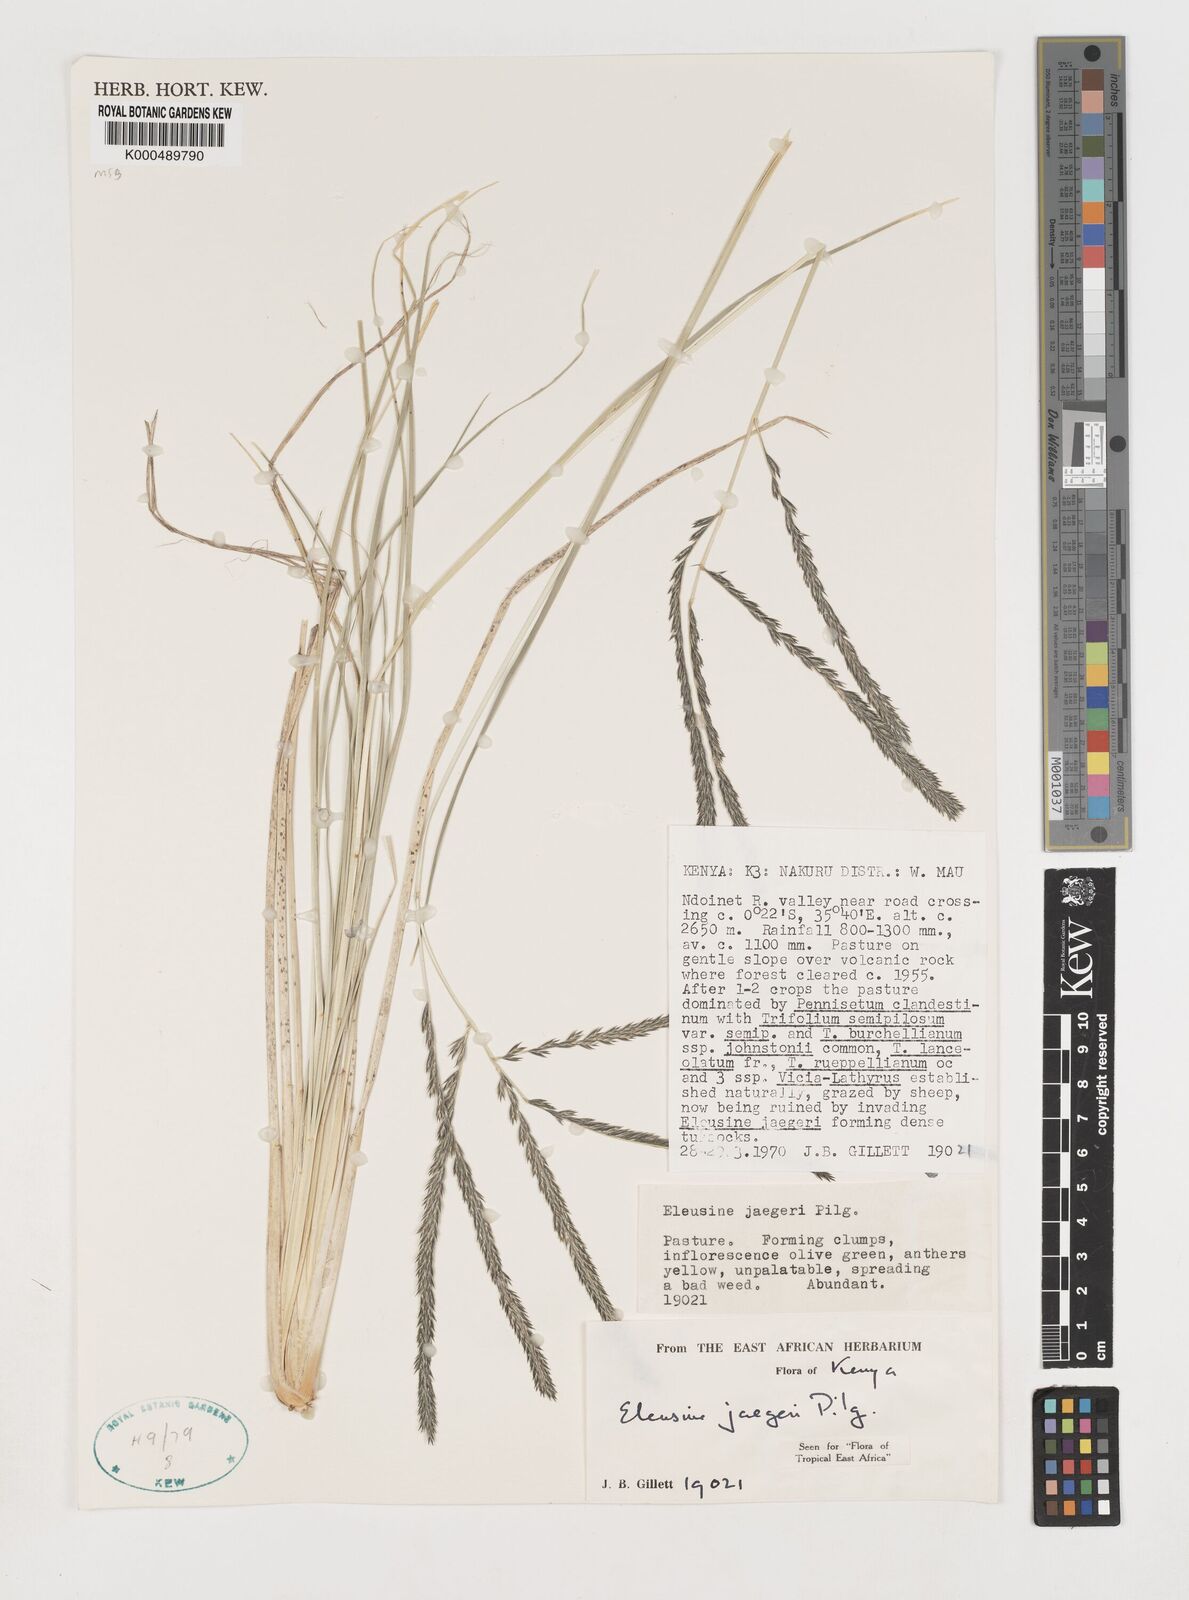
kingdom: Plantae
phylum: Tracheophyta
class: Liliopsida
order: Poales
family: Poaceae
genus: Eleusine
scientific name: Eleusine jaegeri
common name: Manyatta grass
